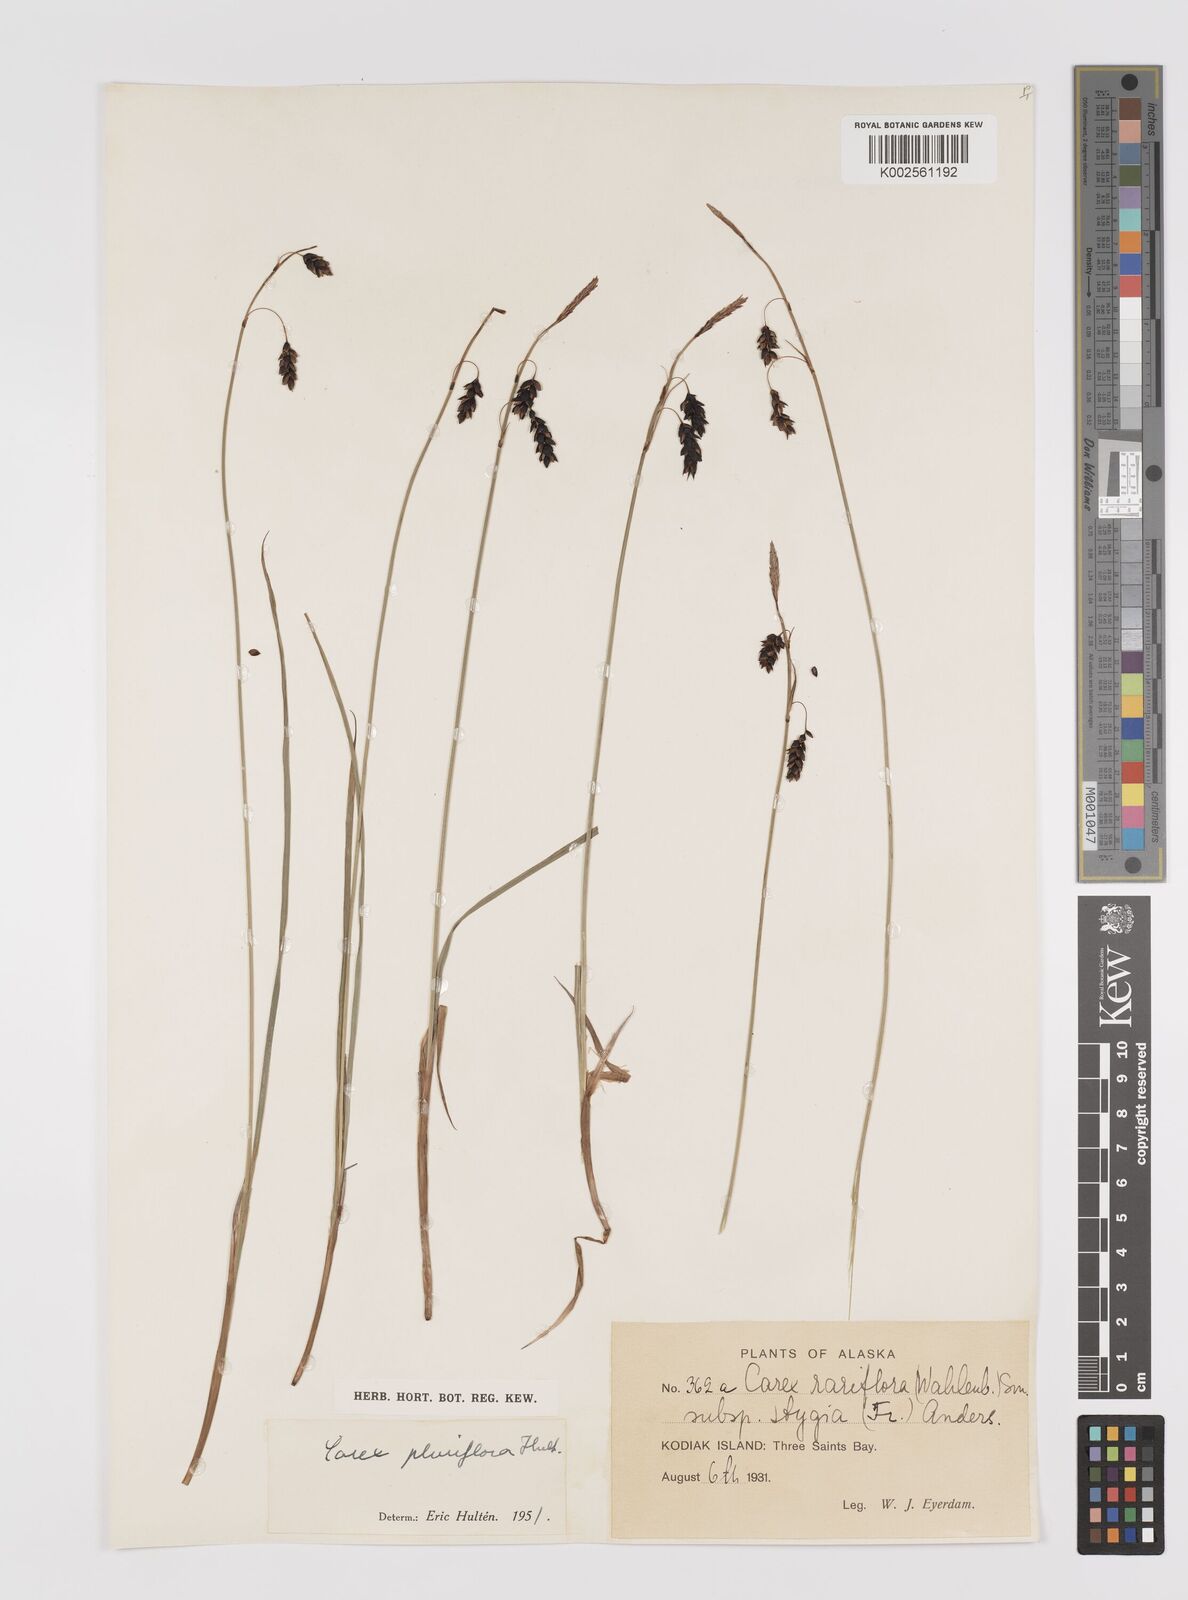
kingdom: Plantae
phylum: Tracheophyta
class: Liliopsida
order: Poales
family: Cyperaceae
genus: Carex
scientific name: Carex pluriflora
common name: Manyflower sedge
